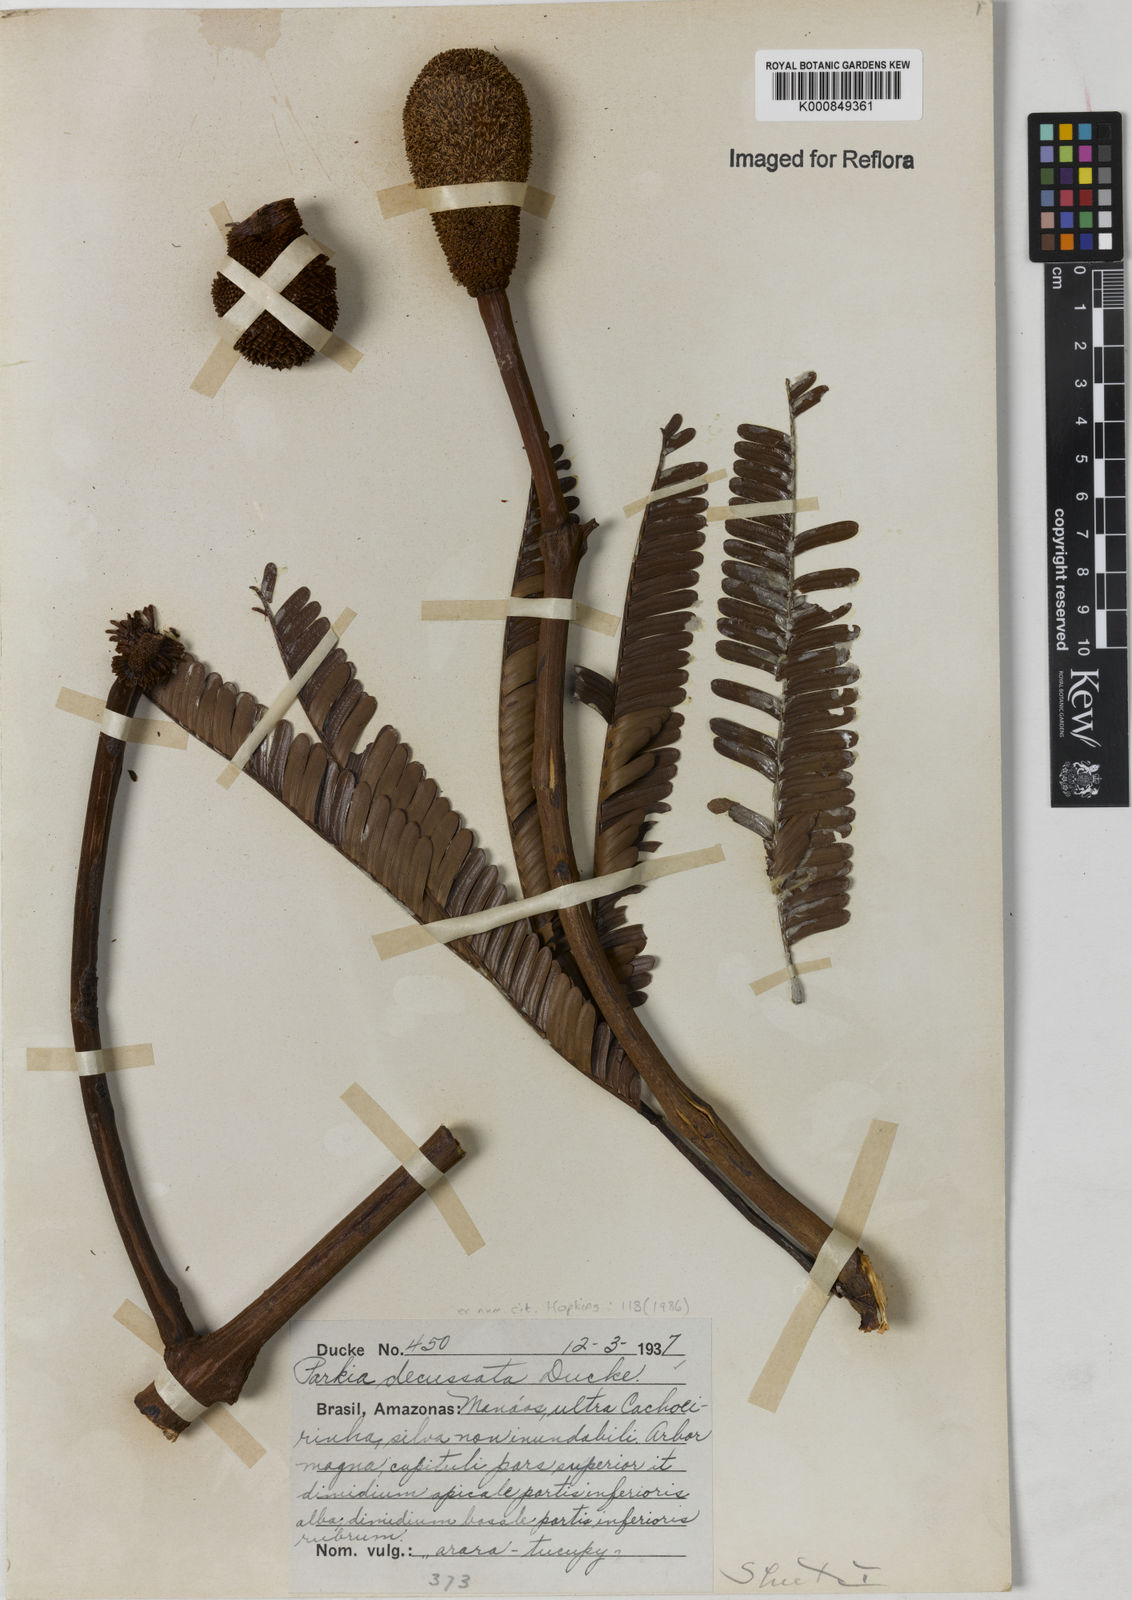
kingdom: Plantae
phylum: Tracheophyta
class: Magnoliopsida
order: Fabales
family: Fabaceae
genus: Parkia
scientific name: Parkia decussata
